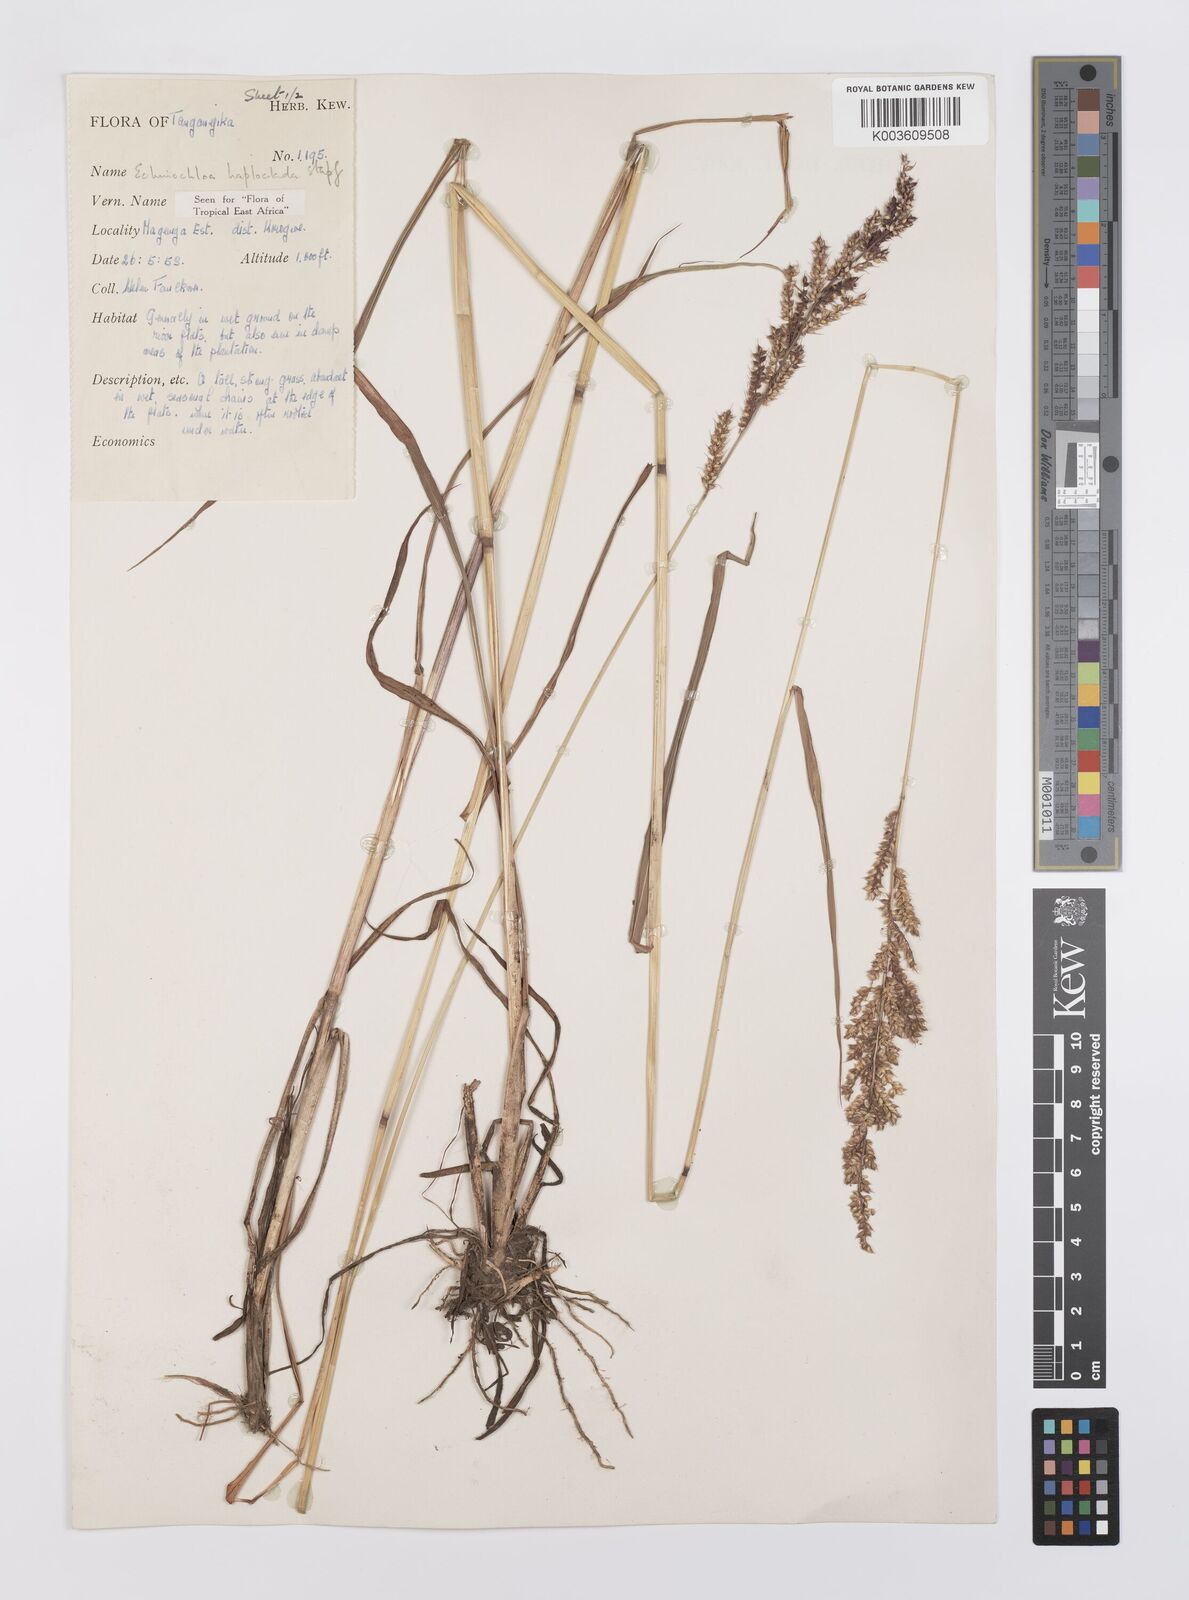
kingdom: Plantae
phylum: Tracheophyta
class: Liliopsida
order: Poales
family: Poaceae
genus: Echinochloa
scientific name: Echinochloa haploclada
